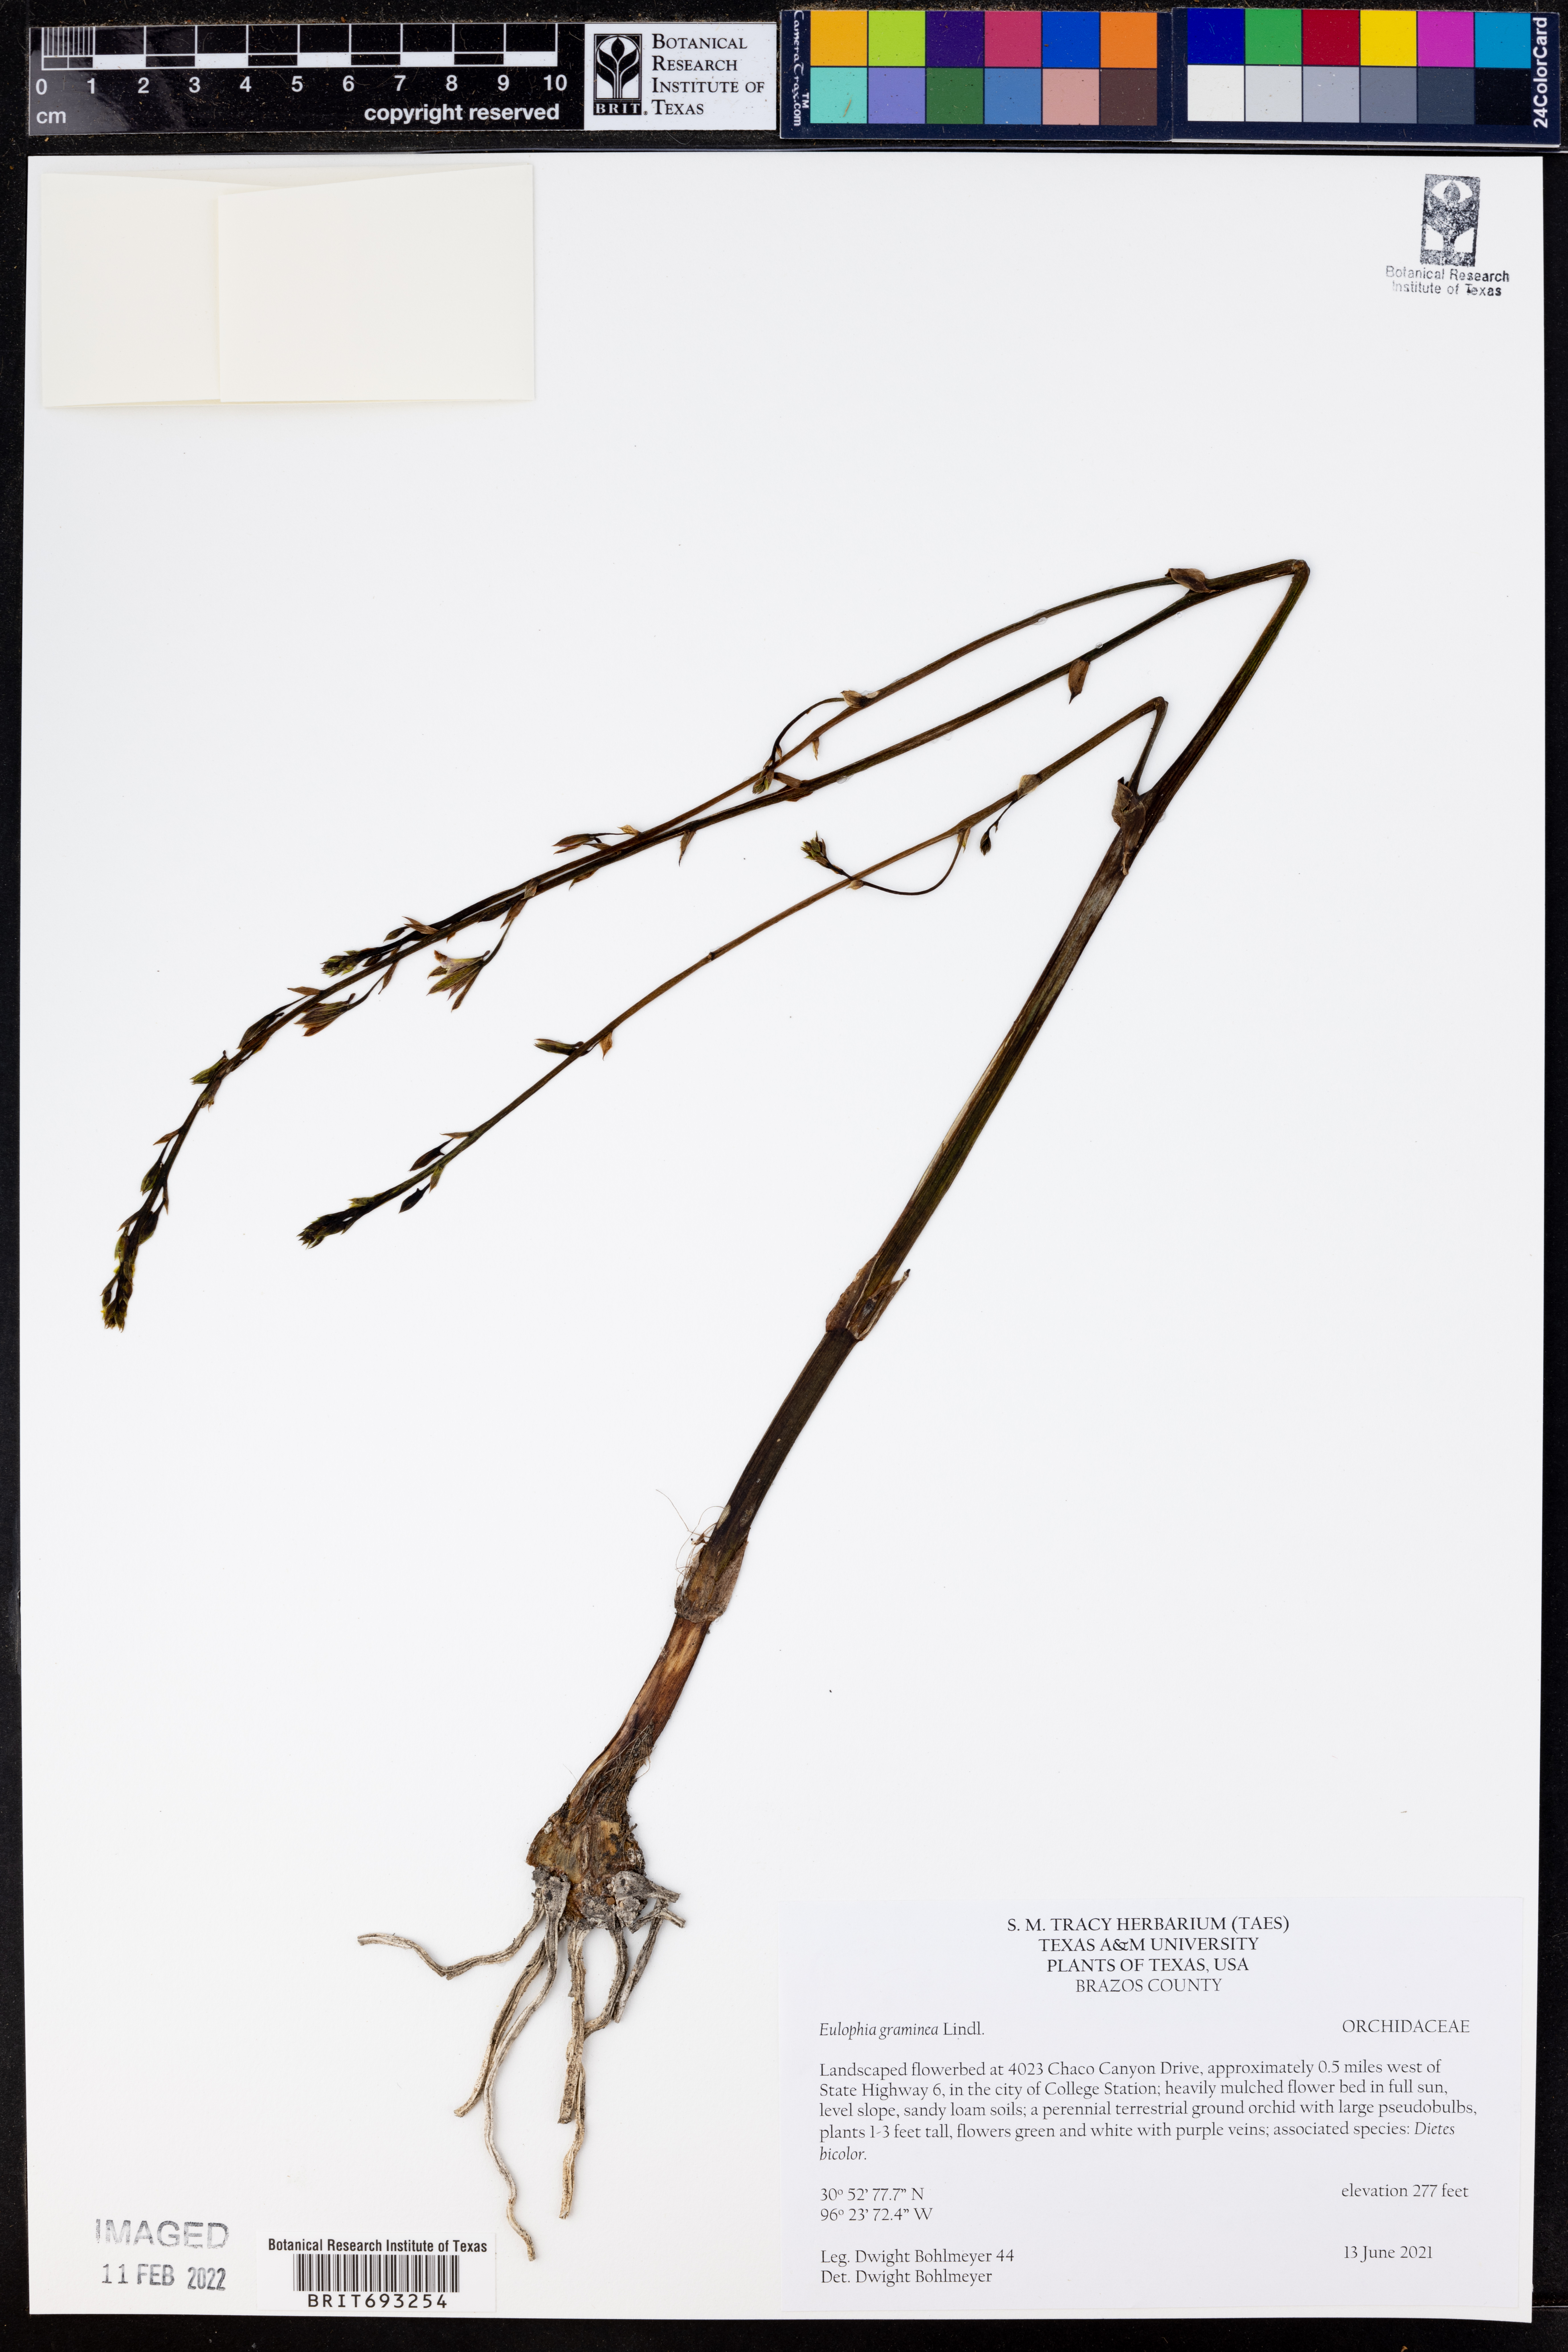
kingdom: Plantae
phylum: Tracheophyta
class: Liliopsida
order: Asparagales
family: Orchidaceae
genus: Eulophia
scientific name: Eulophia graminea
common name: Orchid
